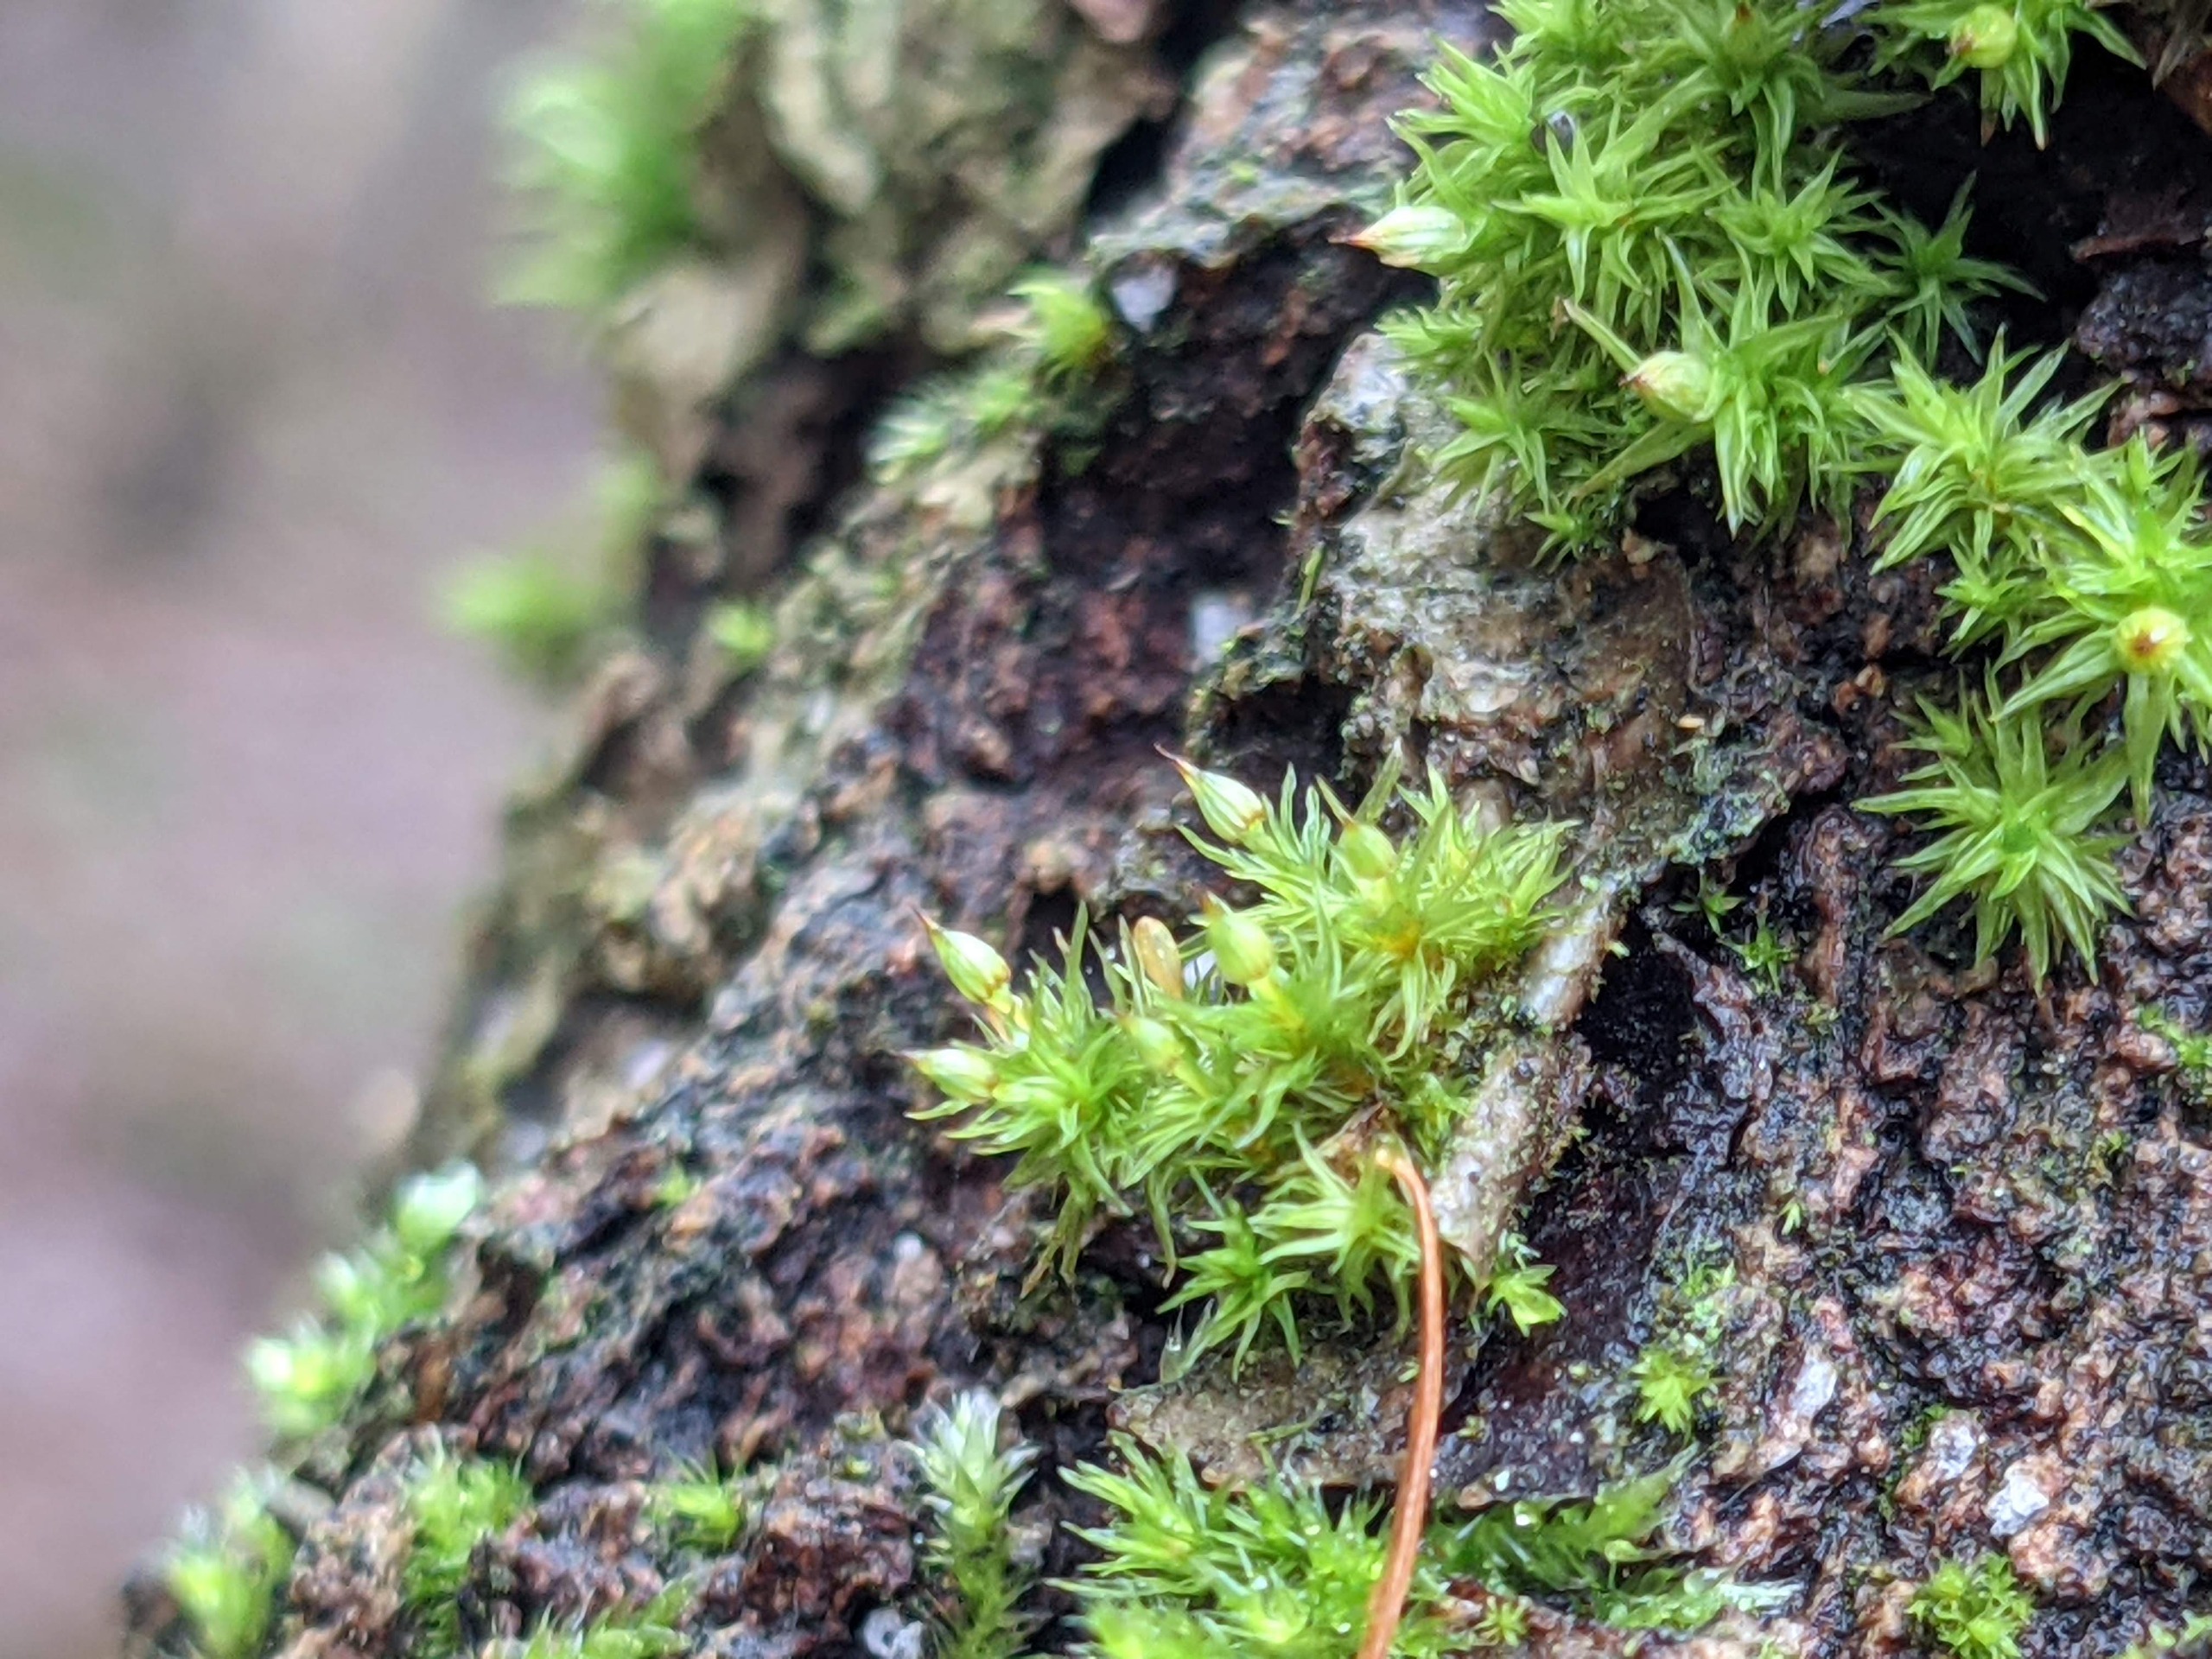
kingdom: Plantae
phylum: Bryophyta
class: Bryopsida
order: Orthotrichales
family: Orthotrichaceae
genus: Orthotrichum
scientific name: Orthotrichum pulchellum
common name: Smuk furehætte
